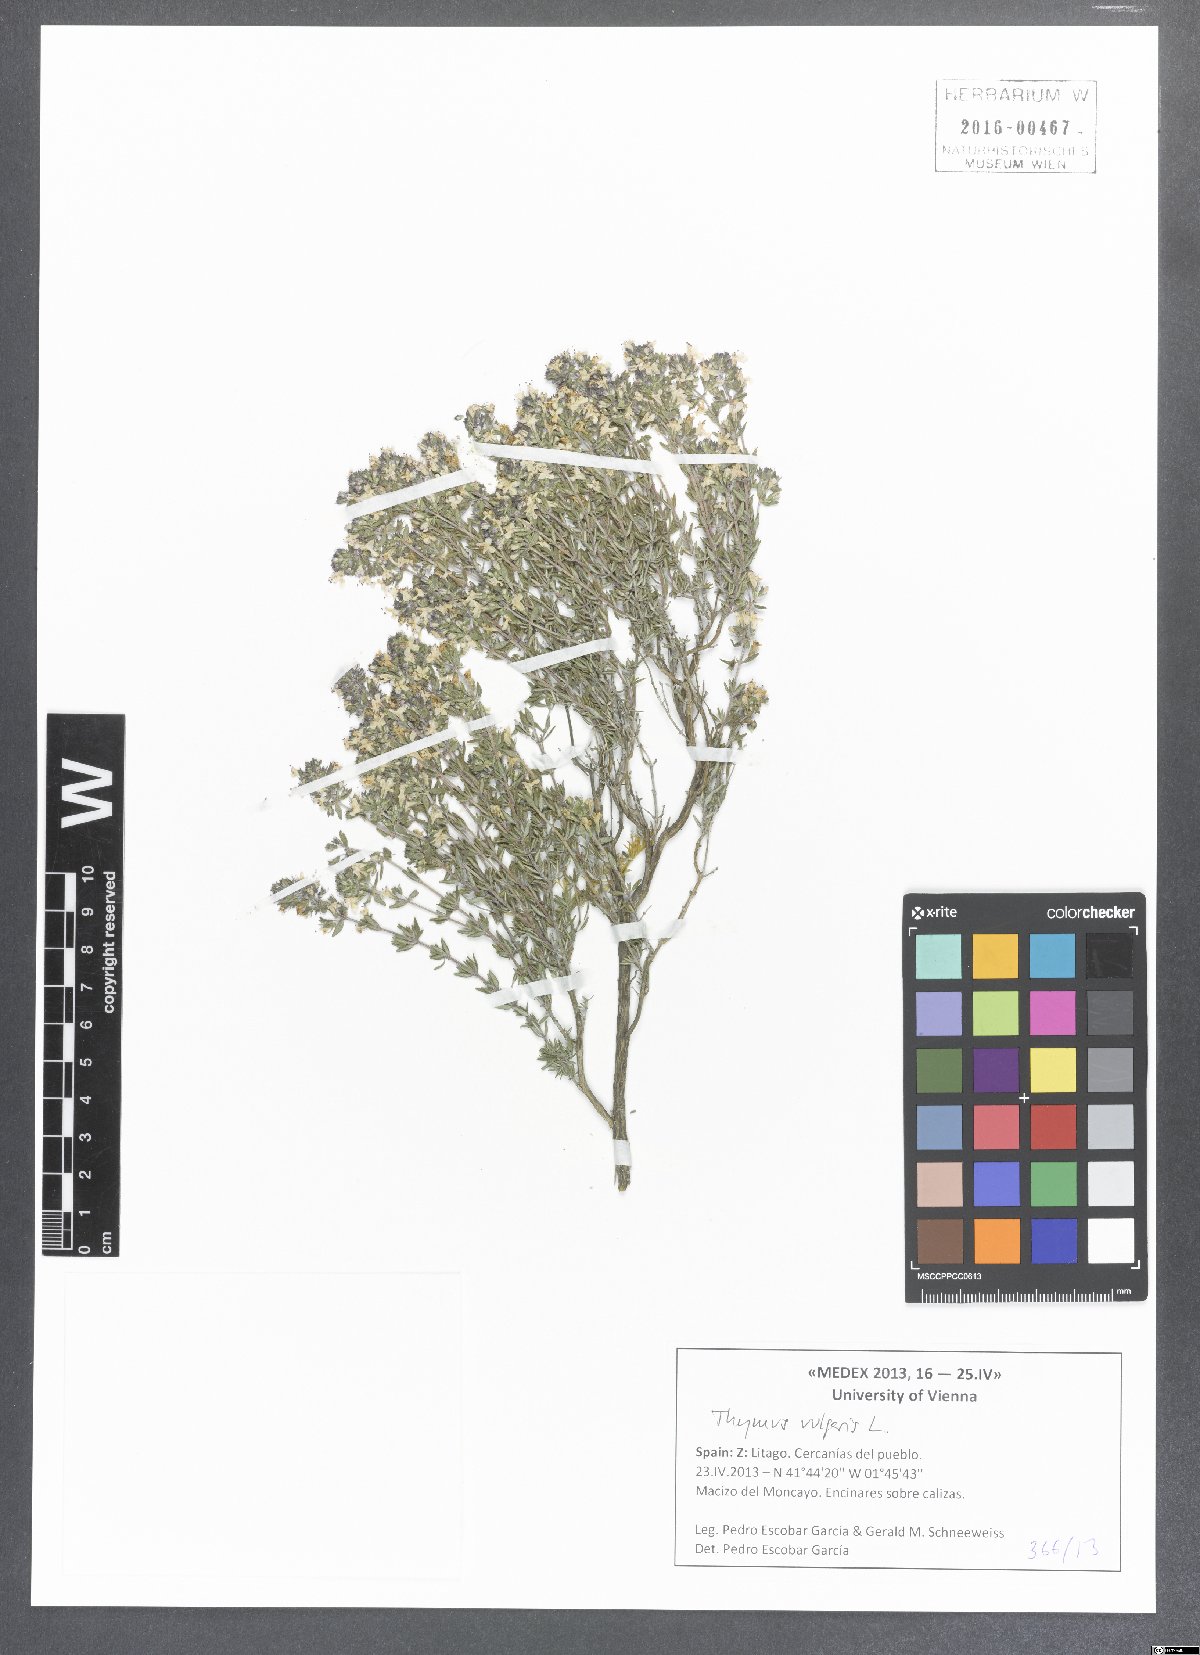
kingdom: Plantae
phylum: Tracheophyta
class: Magnoliopsida
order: Lamiales
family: Lamiaceae
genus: Thymus
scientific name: Thymus vulgaris
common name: Garden thyme
